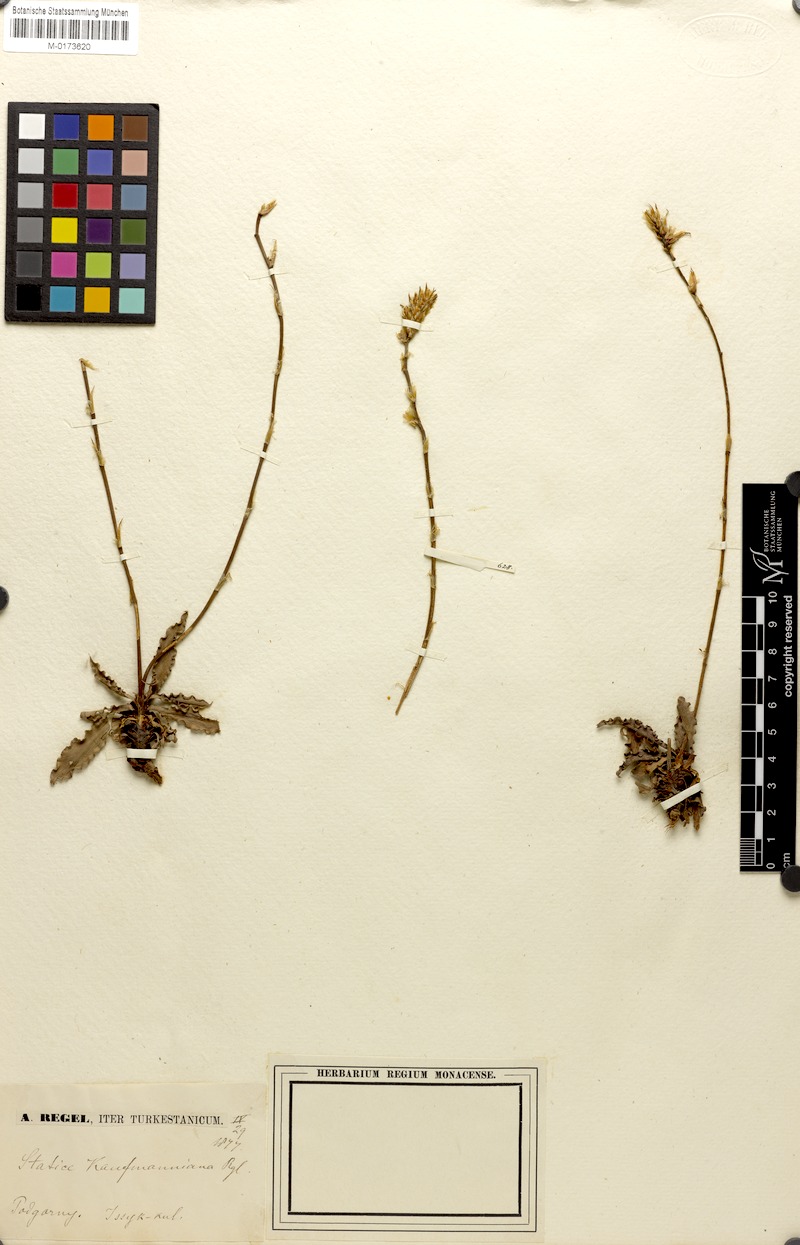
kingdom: Plantae
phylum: Tracheophyta
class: Magnoliopsida
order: Caryophyllales
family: Plumbaginaceae
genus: Ikonnikovia
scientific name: Ikonnikovia kaufmanniana
